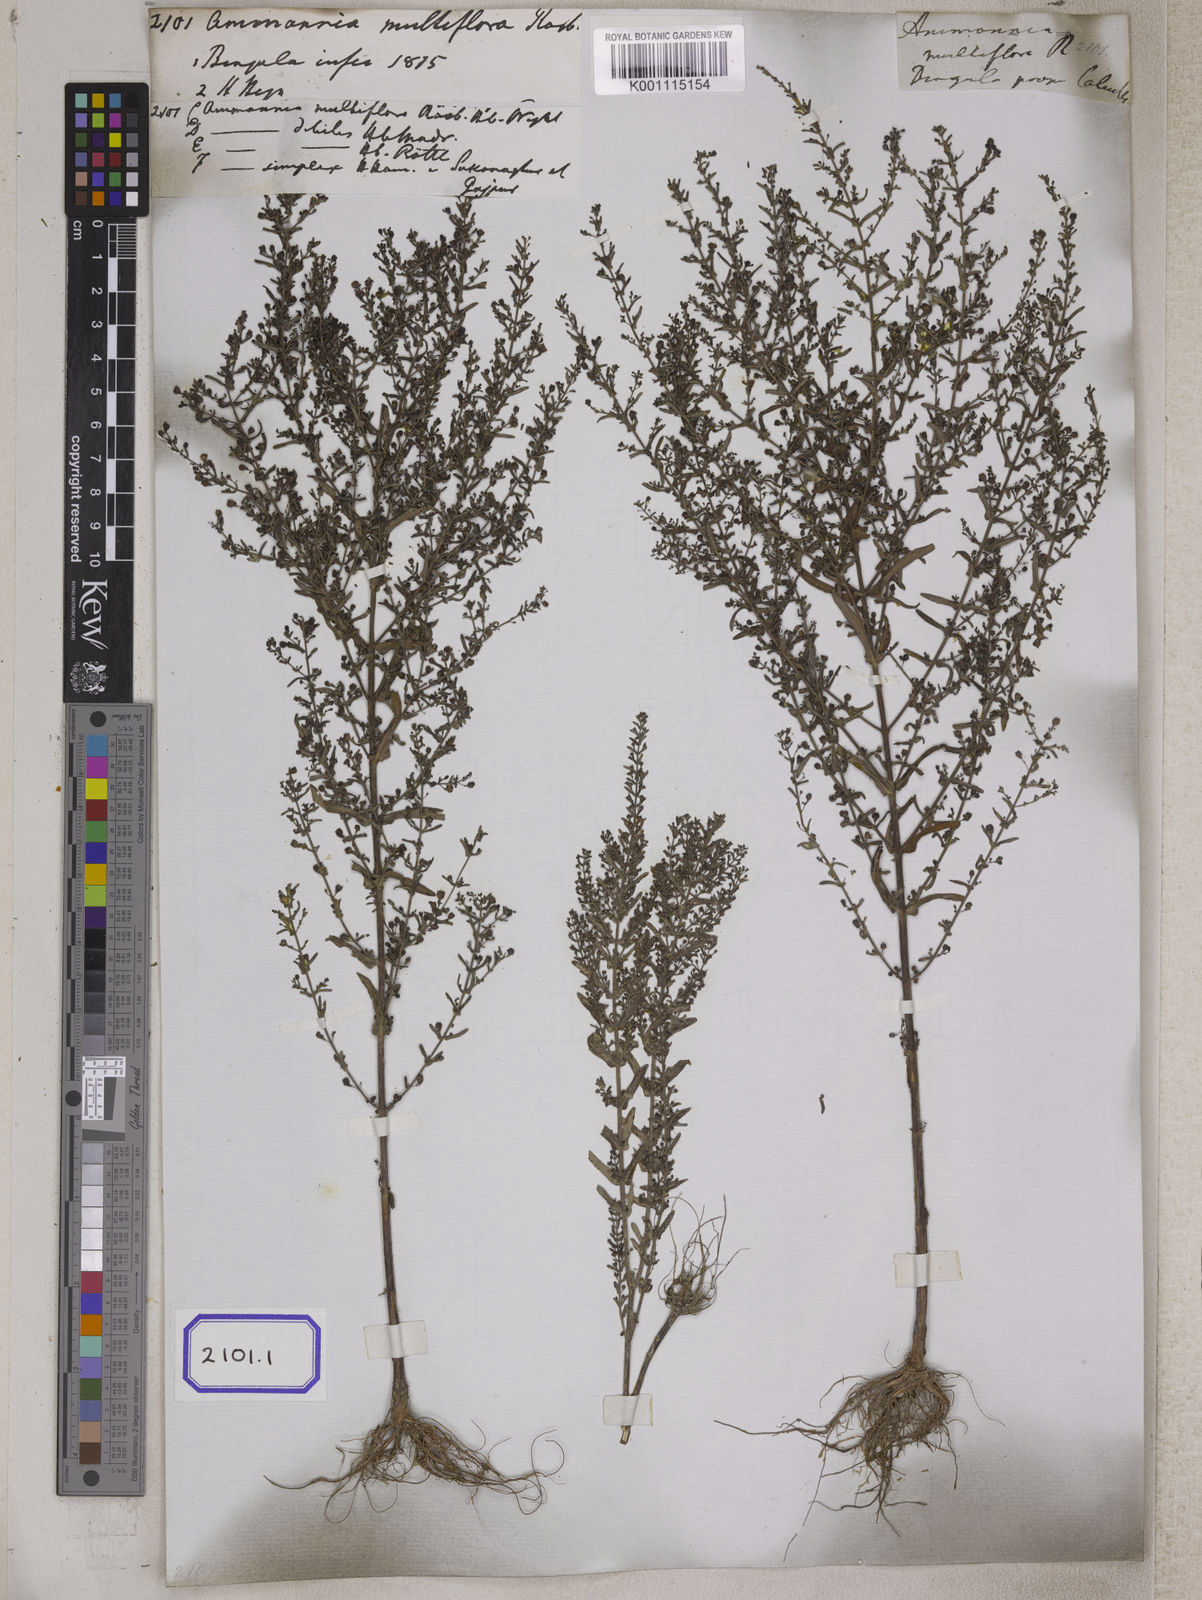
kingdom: Plantae
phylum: Tracheophyta
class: Magnoliopsida
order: Myrtales
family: Lythraceae
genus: Ammannia
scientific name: Ammannia auriculata
